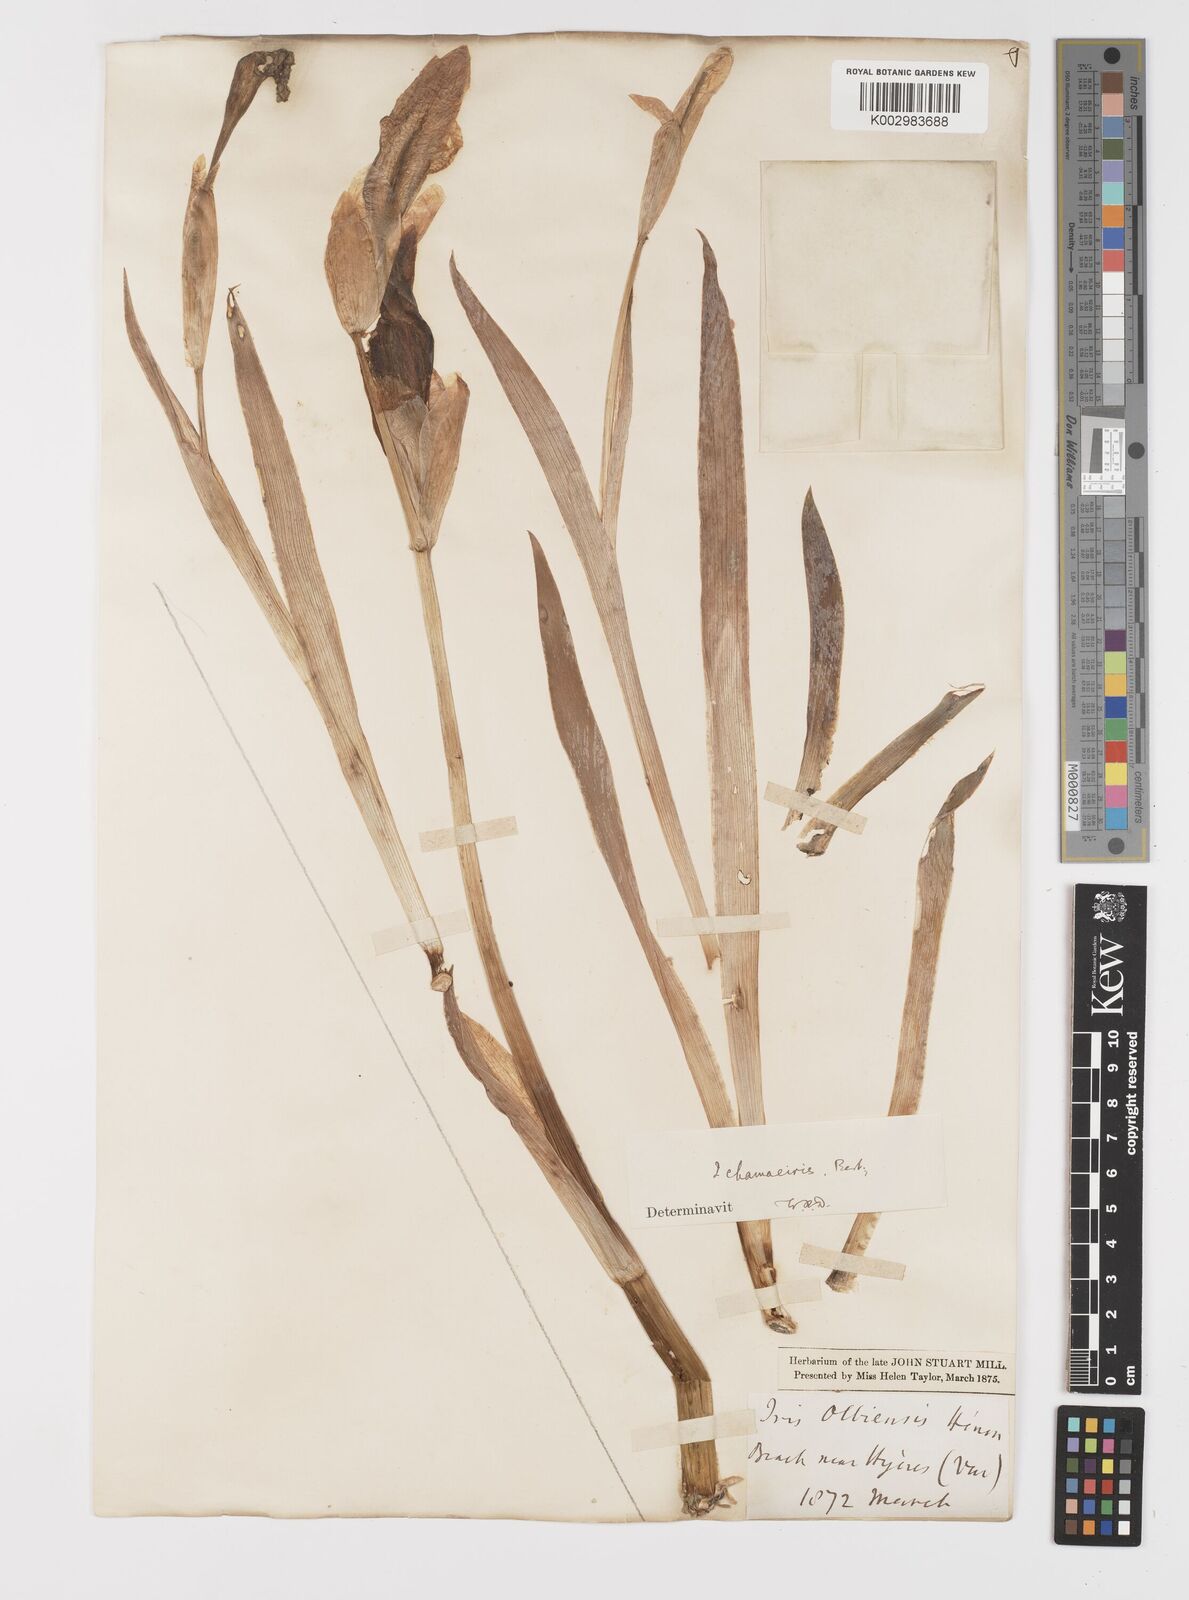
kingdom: Plantae
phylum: Tracheophyta
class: Liliopsida
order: Asparagales
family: Iridaceae
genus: Iris
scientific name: Iris lutescens
